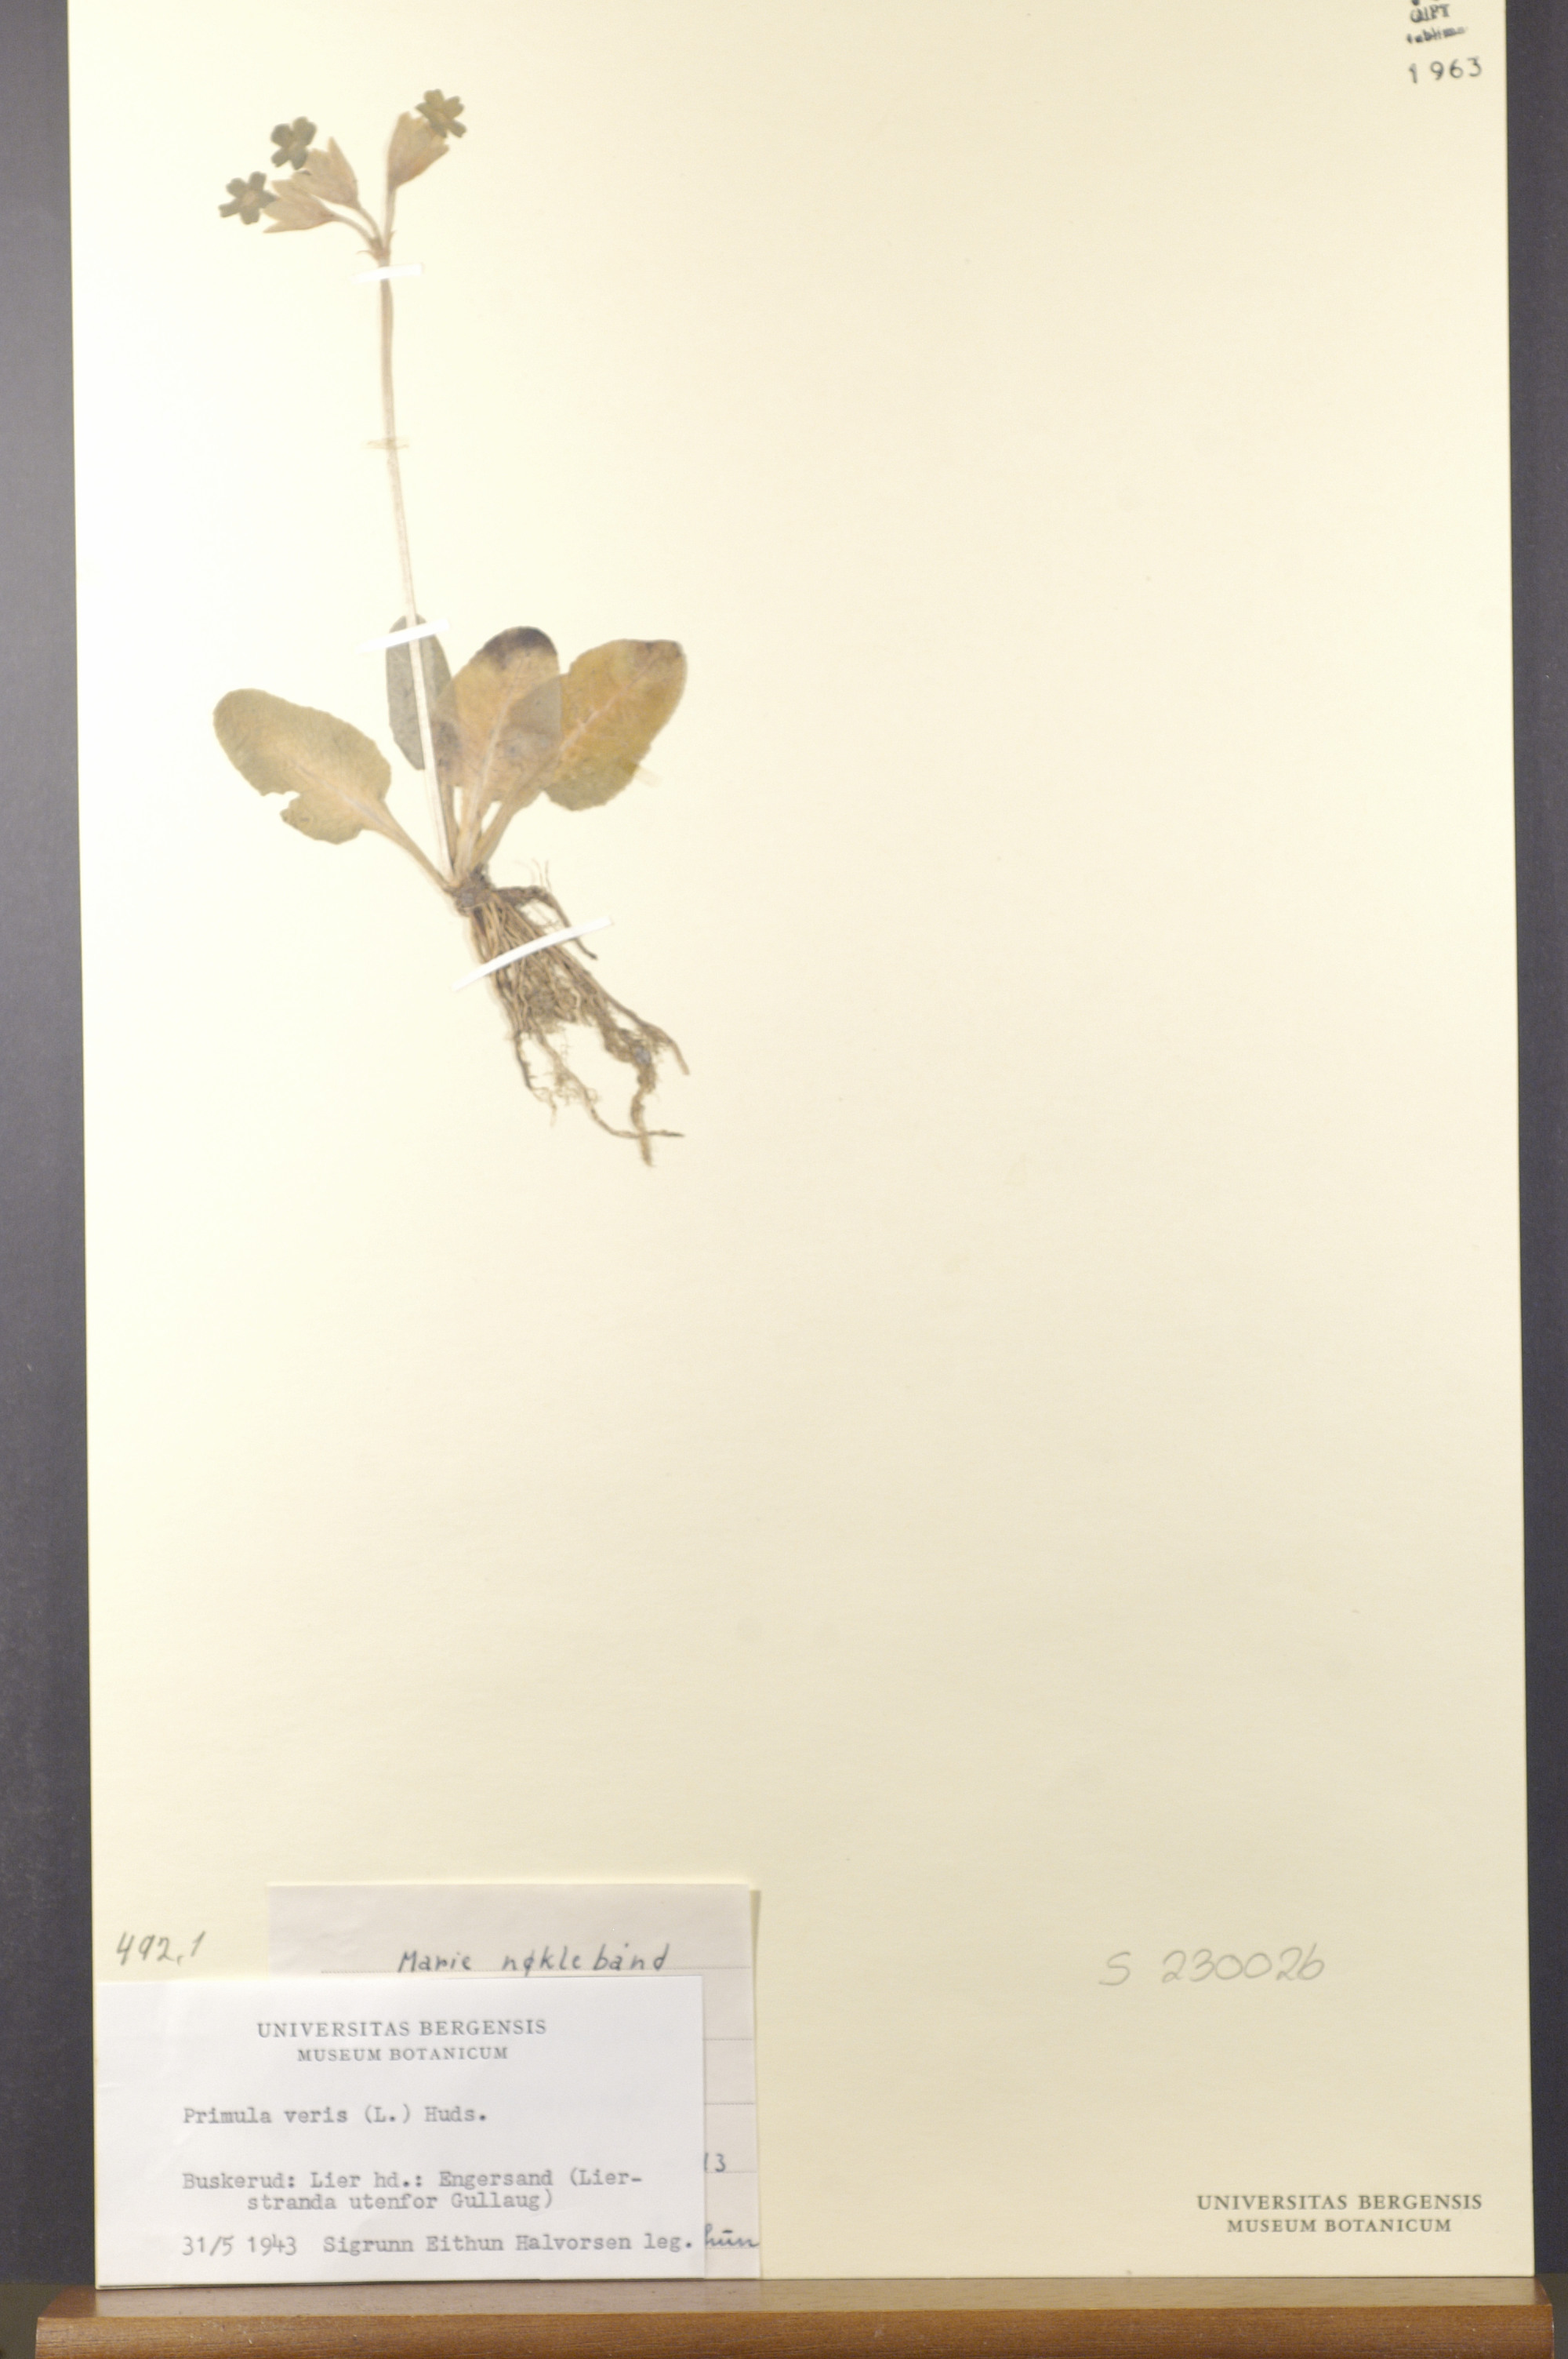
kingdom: Plantae
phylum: Tracheophyta
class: Magnoliopsida
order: Ericales
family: Primulaceae
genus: Primula
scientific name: Primula veris
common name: Cowslip
